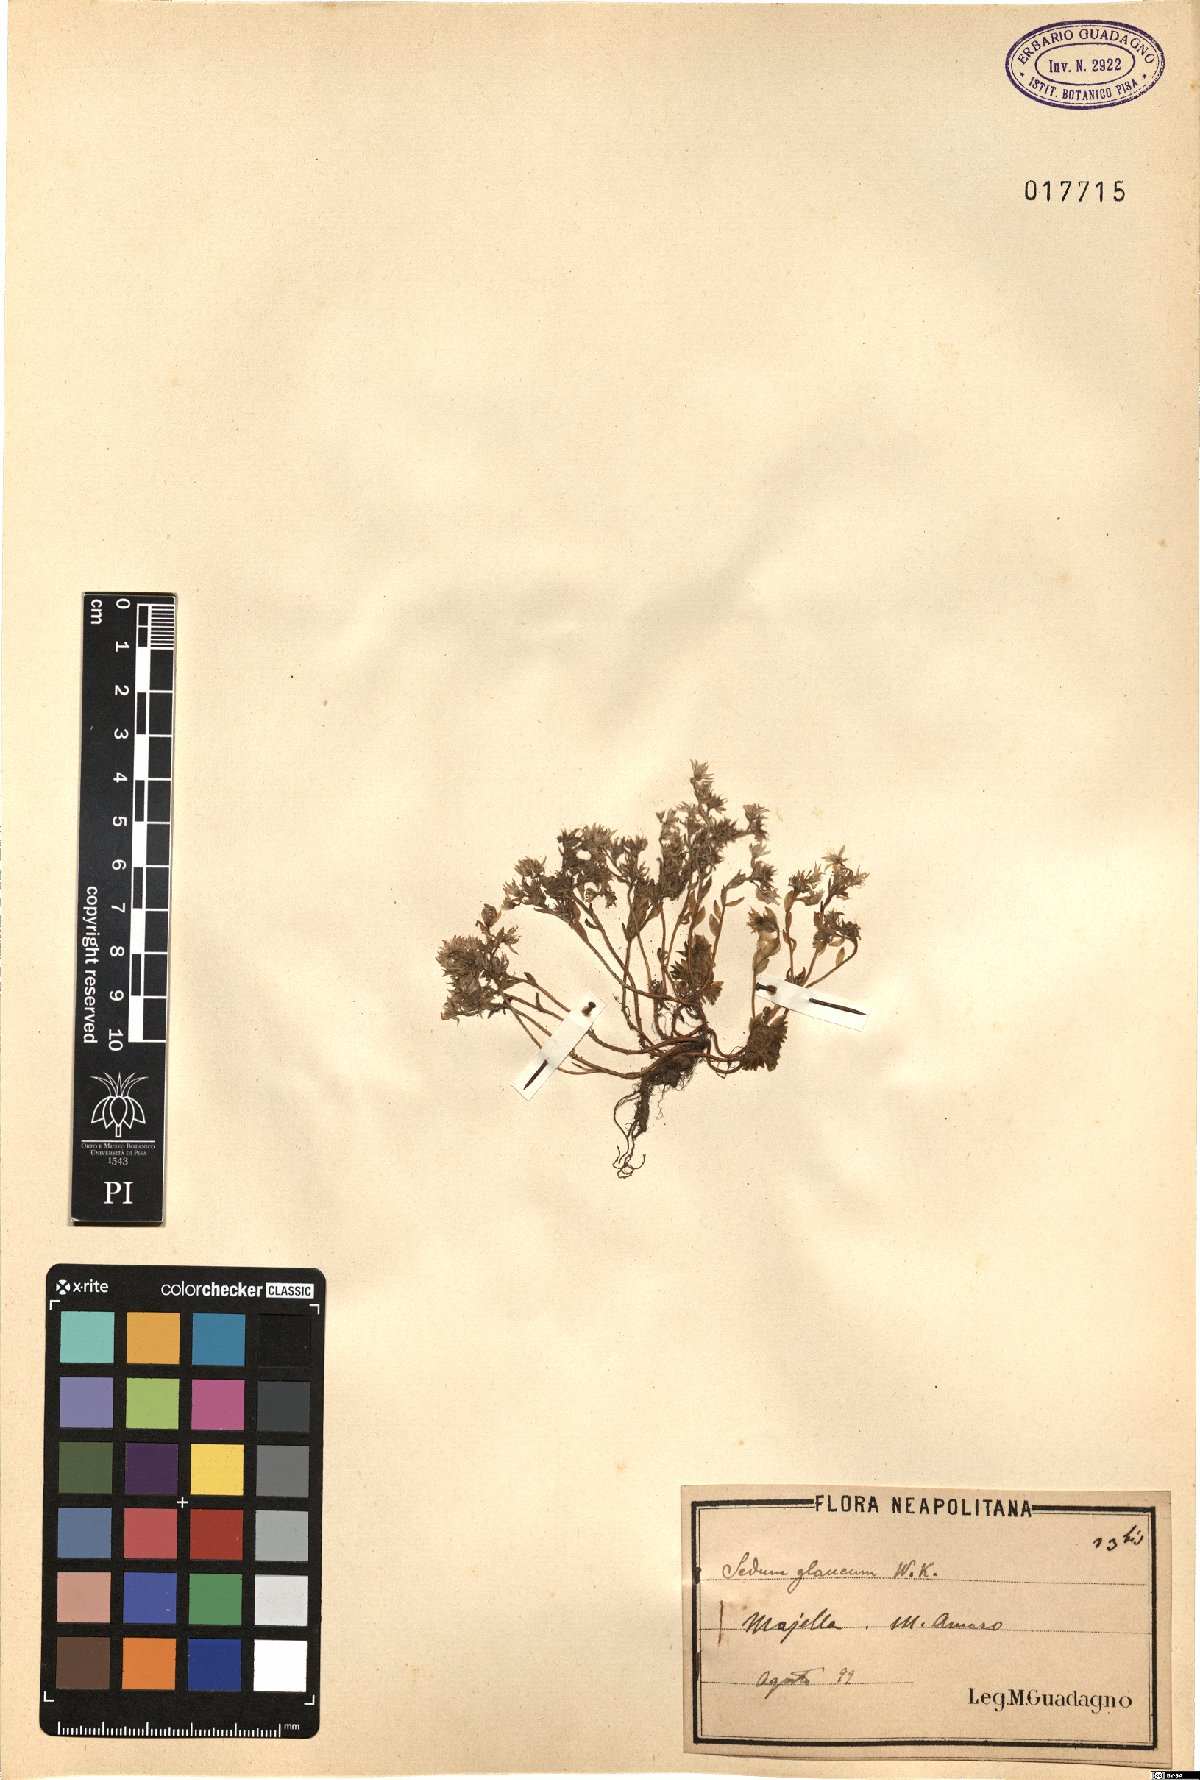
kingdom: Plantae
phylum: Tracheophyta
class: Magnoliopsida
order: Saxifragales
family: Crassulaceae
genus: Sedum
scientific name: Sedum hispanicum
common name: Spanish stonecrop
